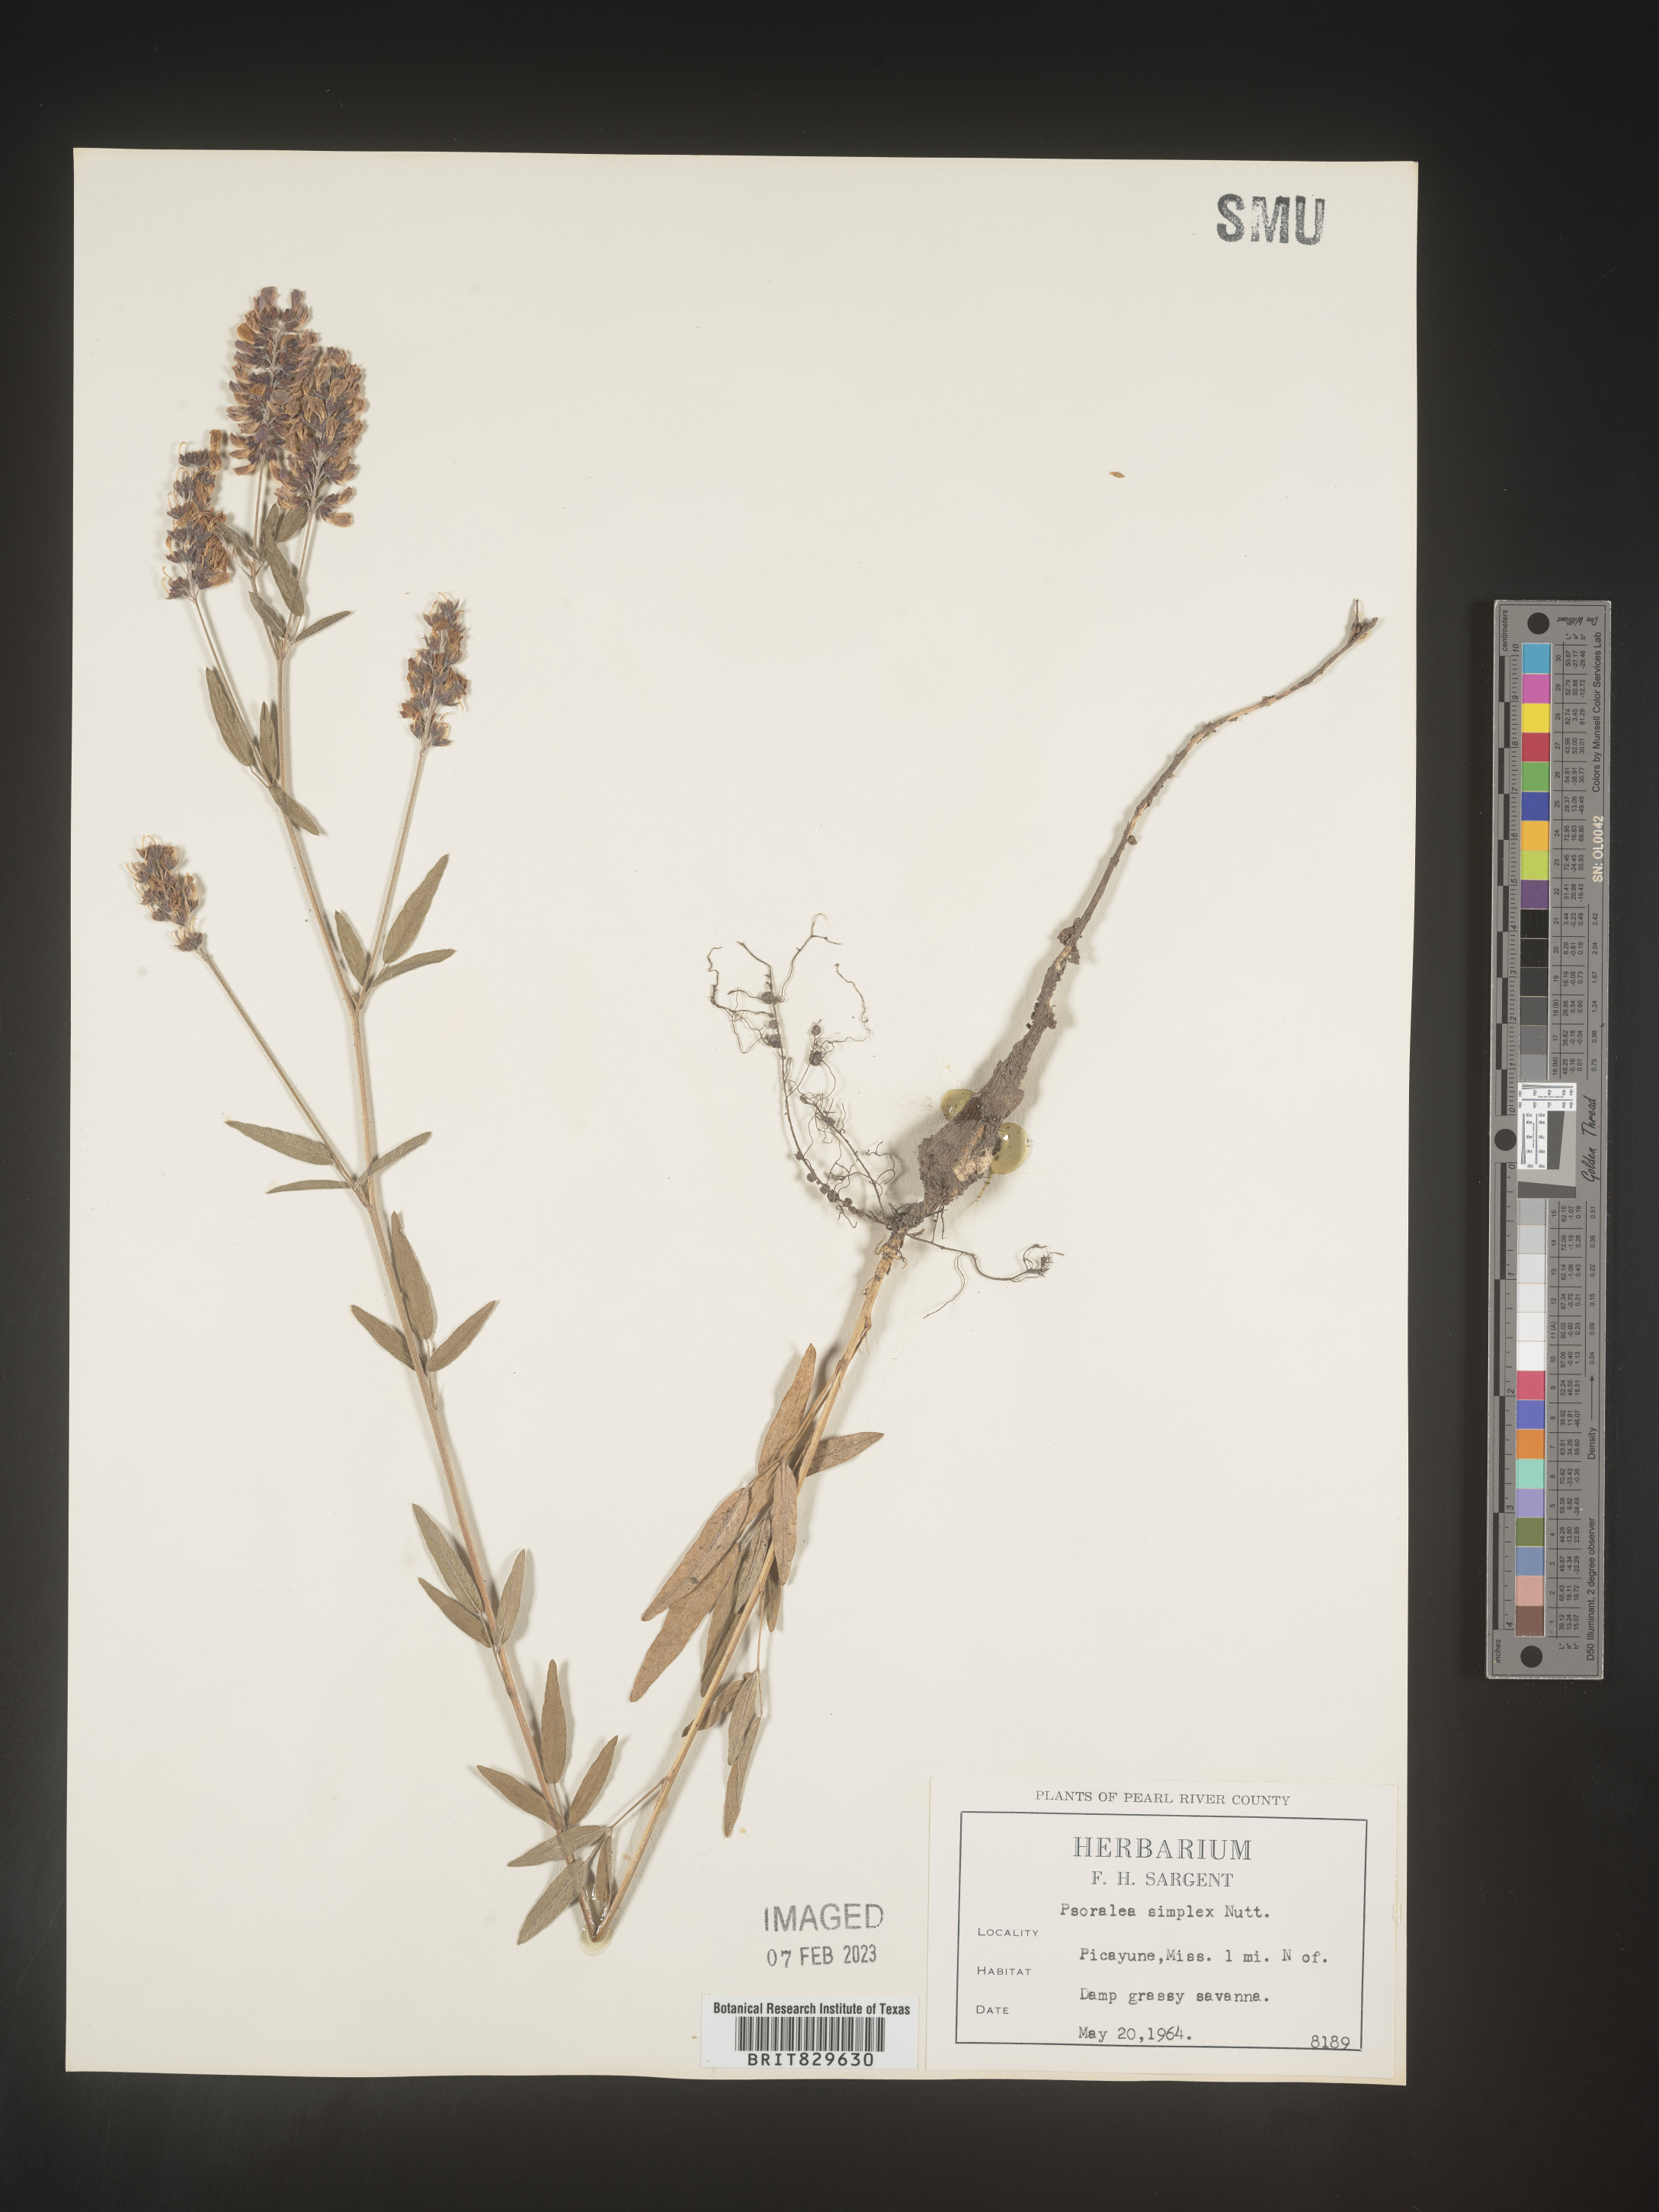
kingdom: Plantae
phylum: Tracheophyta
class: Magnoliopsida
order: Fabales
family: Fabaceae
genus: Orbexilum
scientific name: Orbexilum simplex
